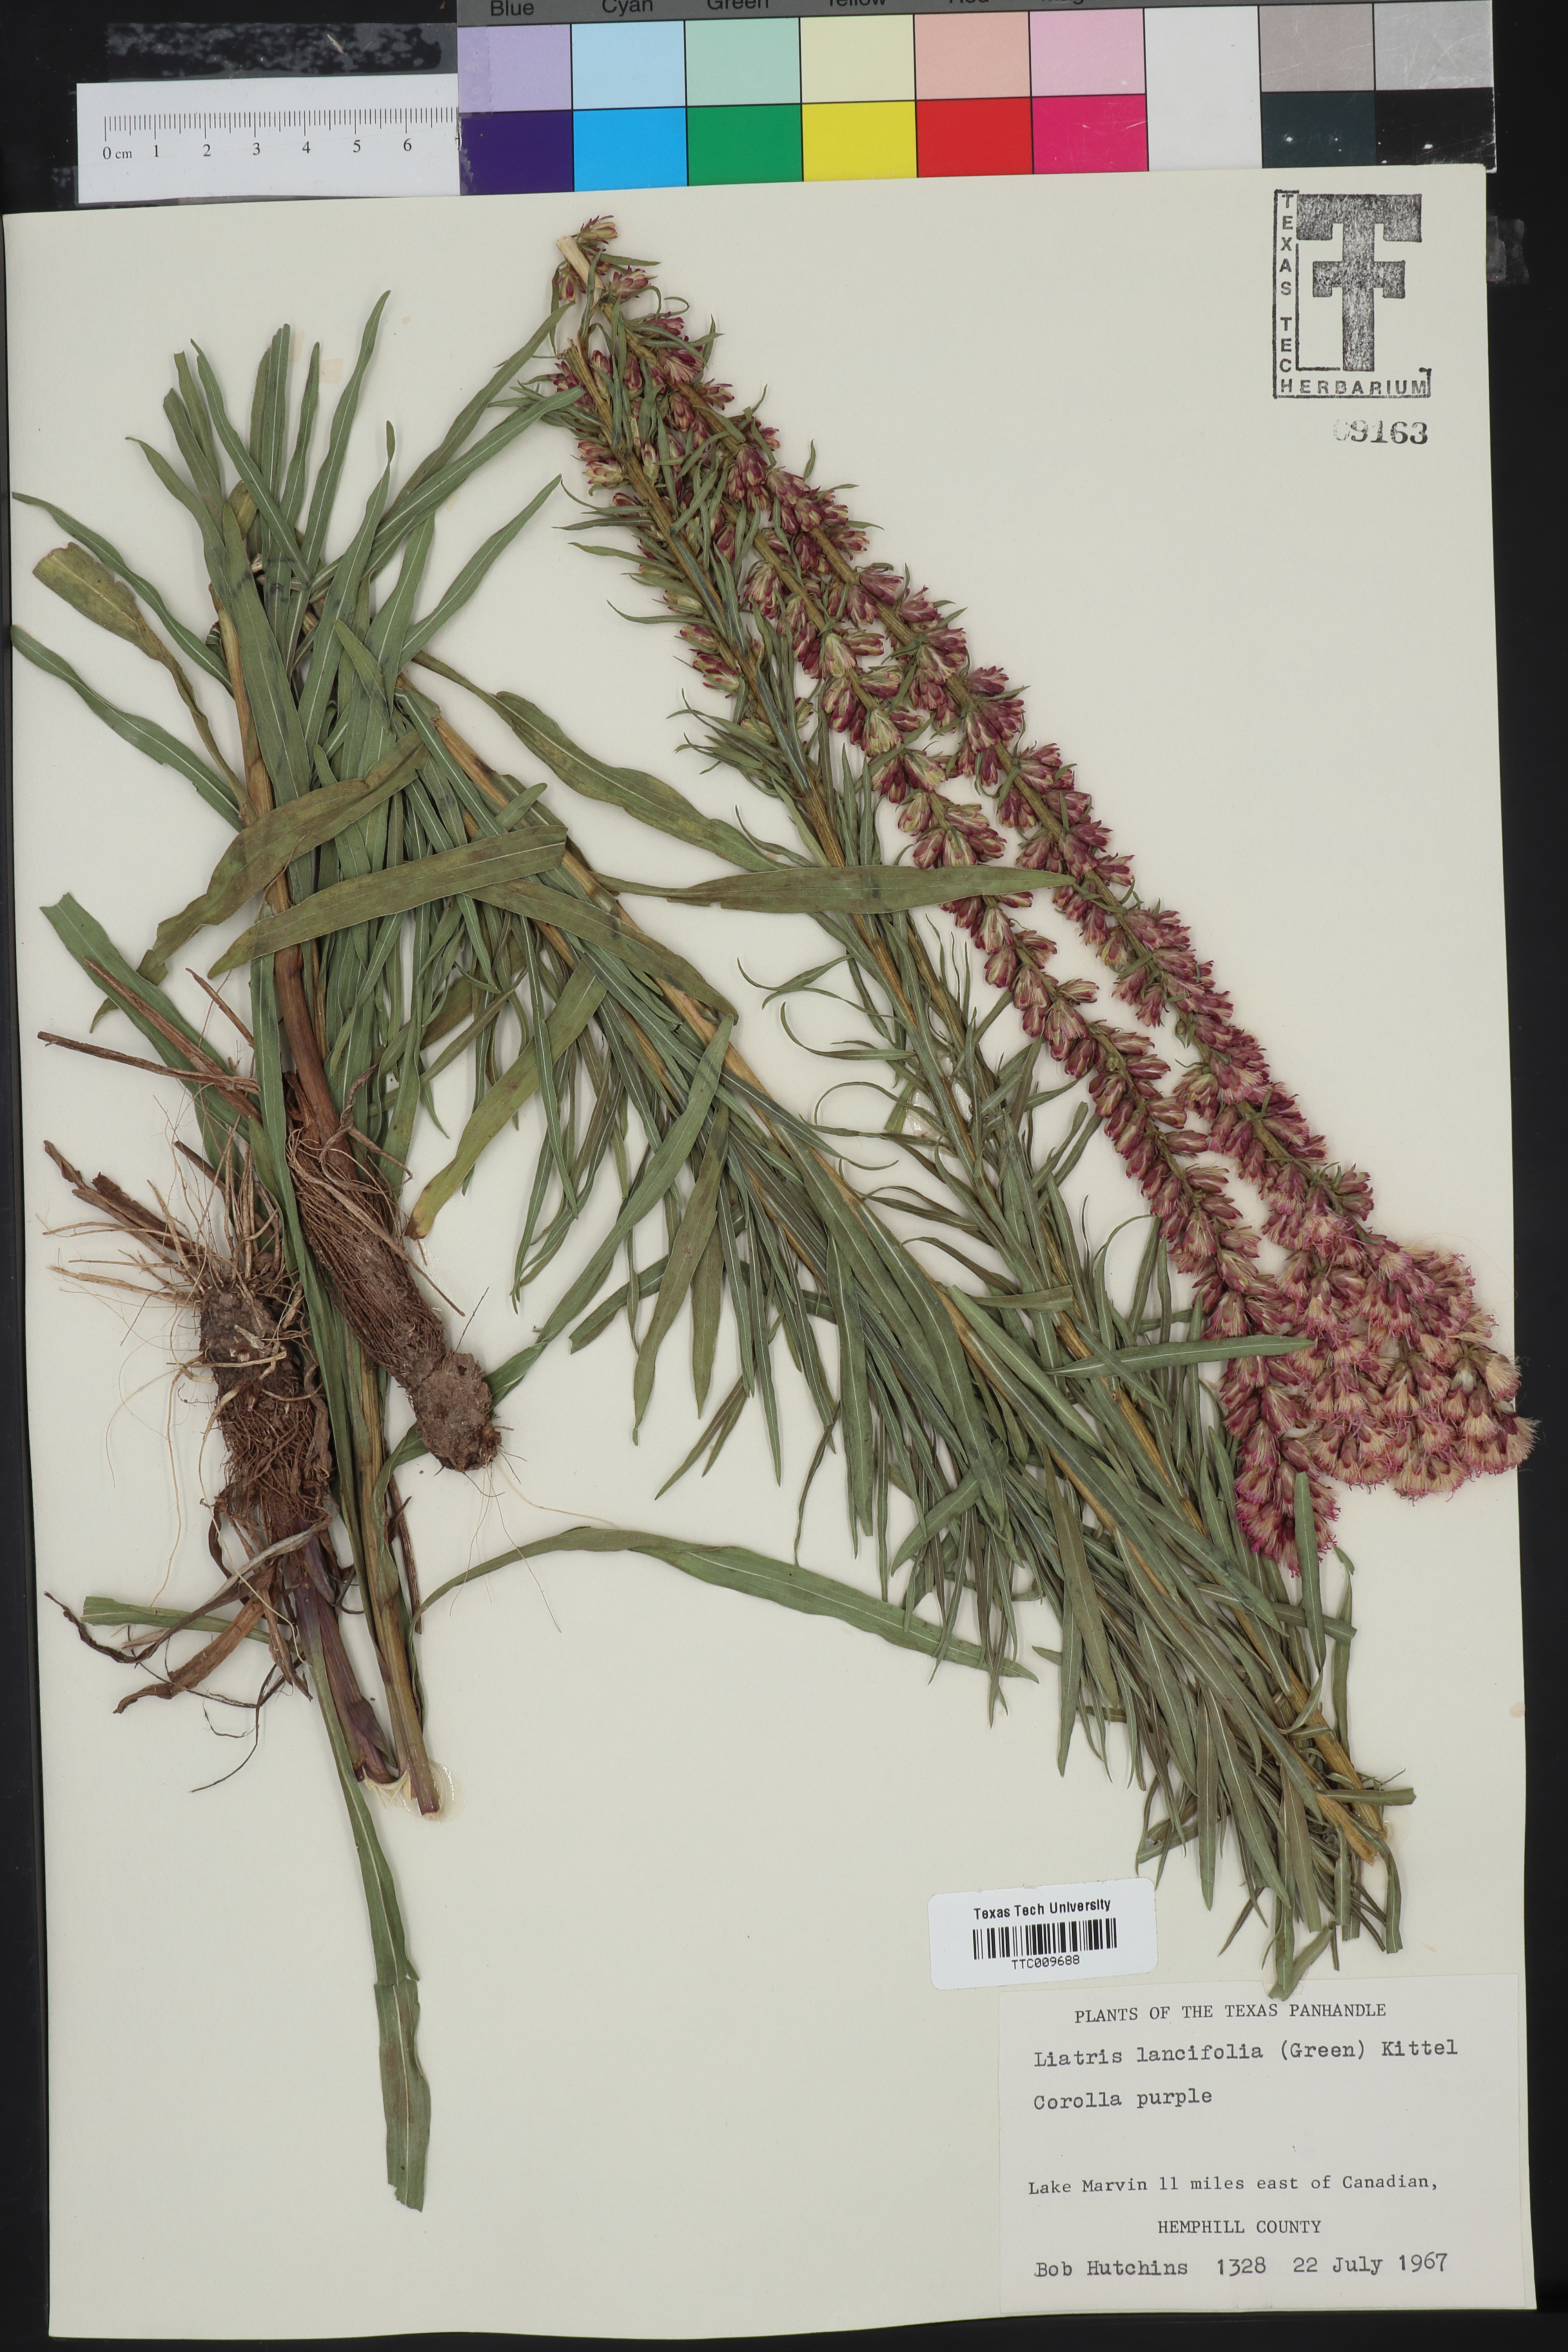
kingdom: Plantae
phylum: Tracheophyta
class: Magnoliopsida
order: Asterales
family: Asteraceae
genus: Liatris
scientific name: Liatris lancifolia
